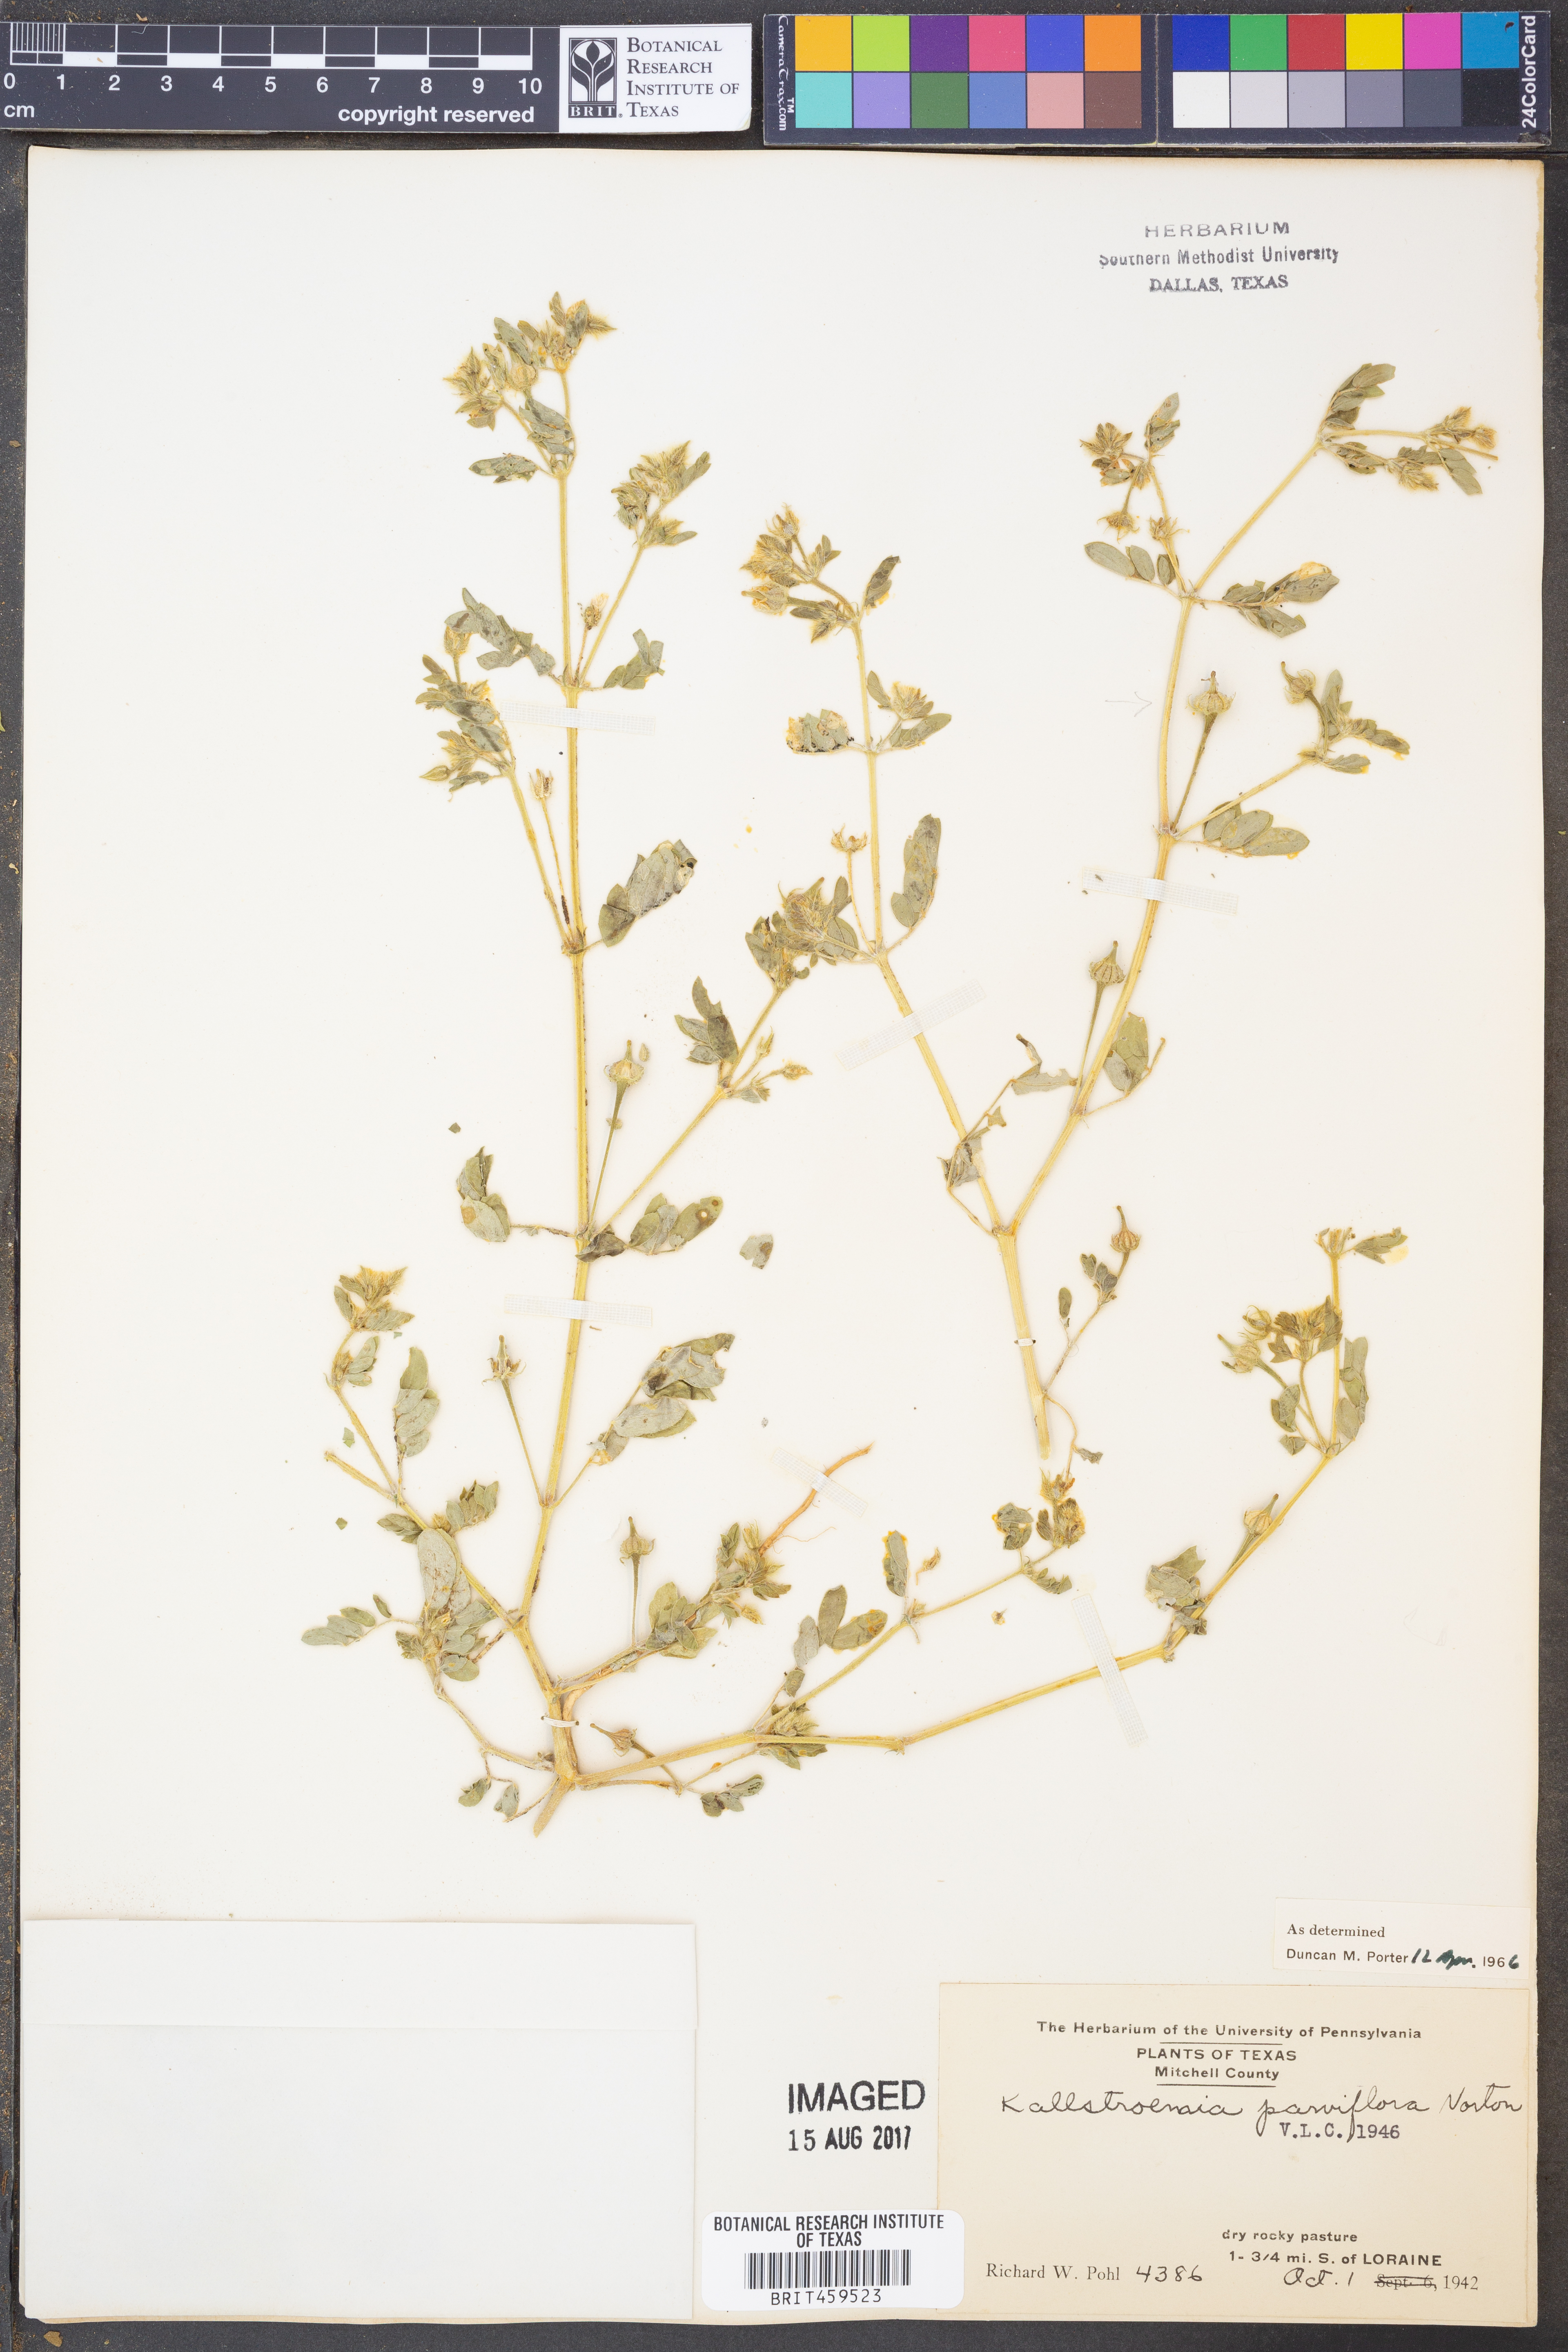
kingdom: Plantae
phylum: Tracheophyta
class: Magnoliopsida
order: Zygophyllales
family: Zygophyllaceae
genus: Kallstroemia
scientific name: Kallstroemia parviflora
